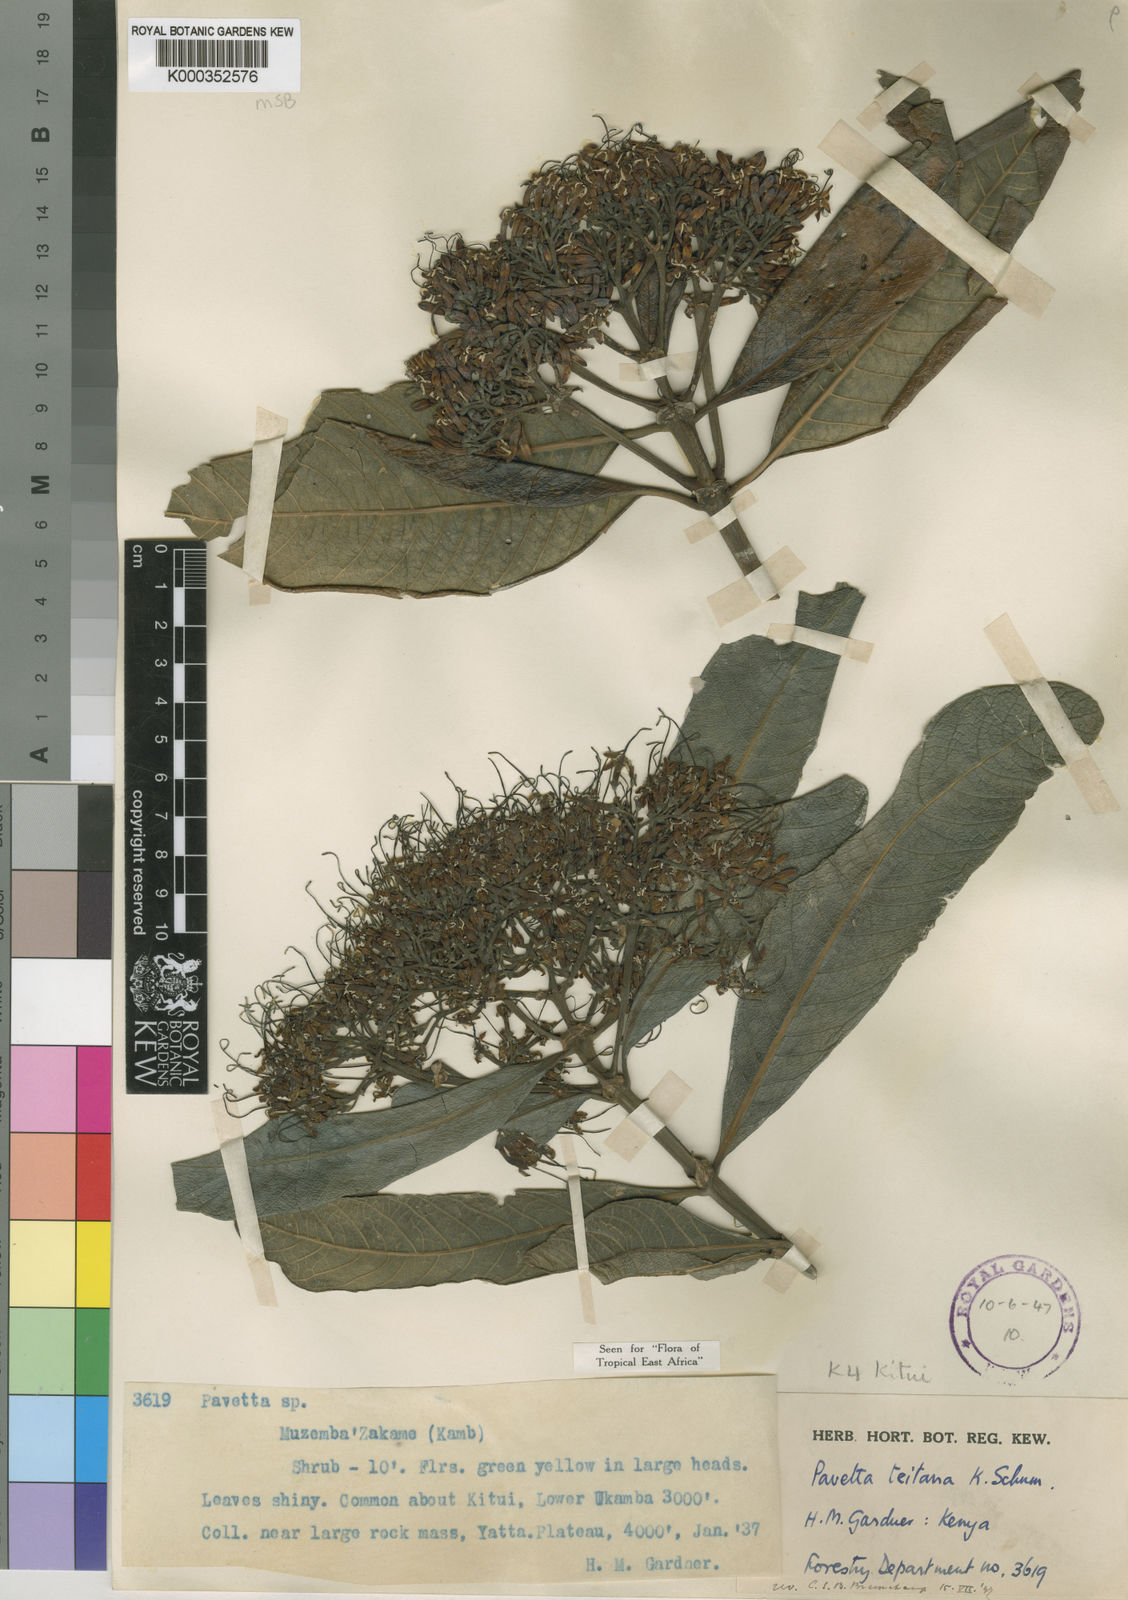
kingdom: Plantae
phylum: Tracheophyta
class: Magnoliopsida
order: Gentianales
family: Rubiaceae
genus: Pavetta
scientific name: Pavetta teitana
